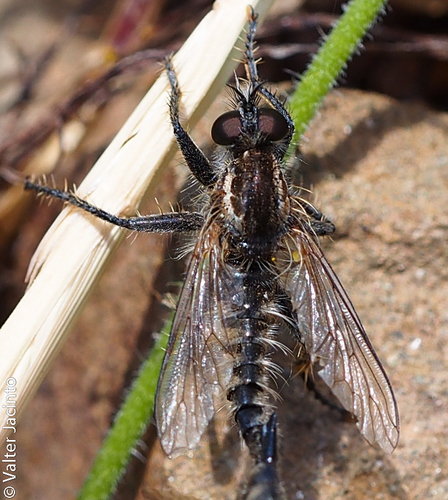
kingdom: Animalia
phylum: Arthropoda
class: Insecta
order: Diptera
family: Asilidae
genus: Dysmachus
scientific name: Dysmachus trigonus
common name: Fan-bristled robberfly
